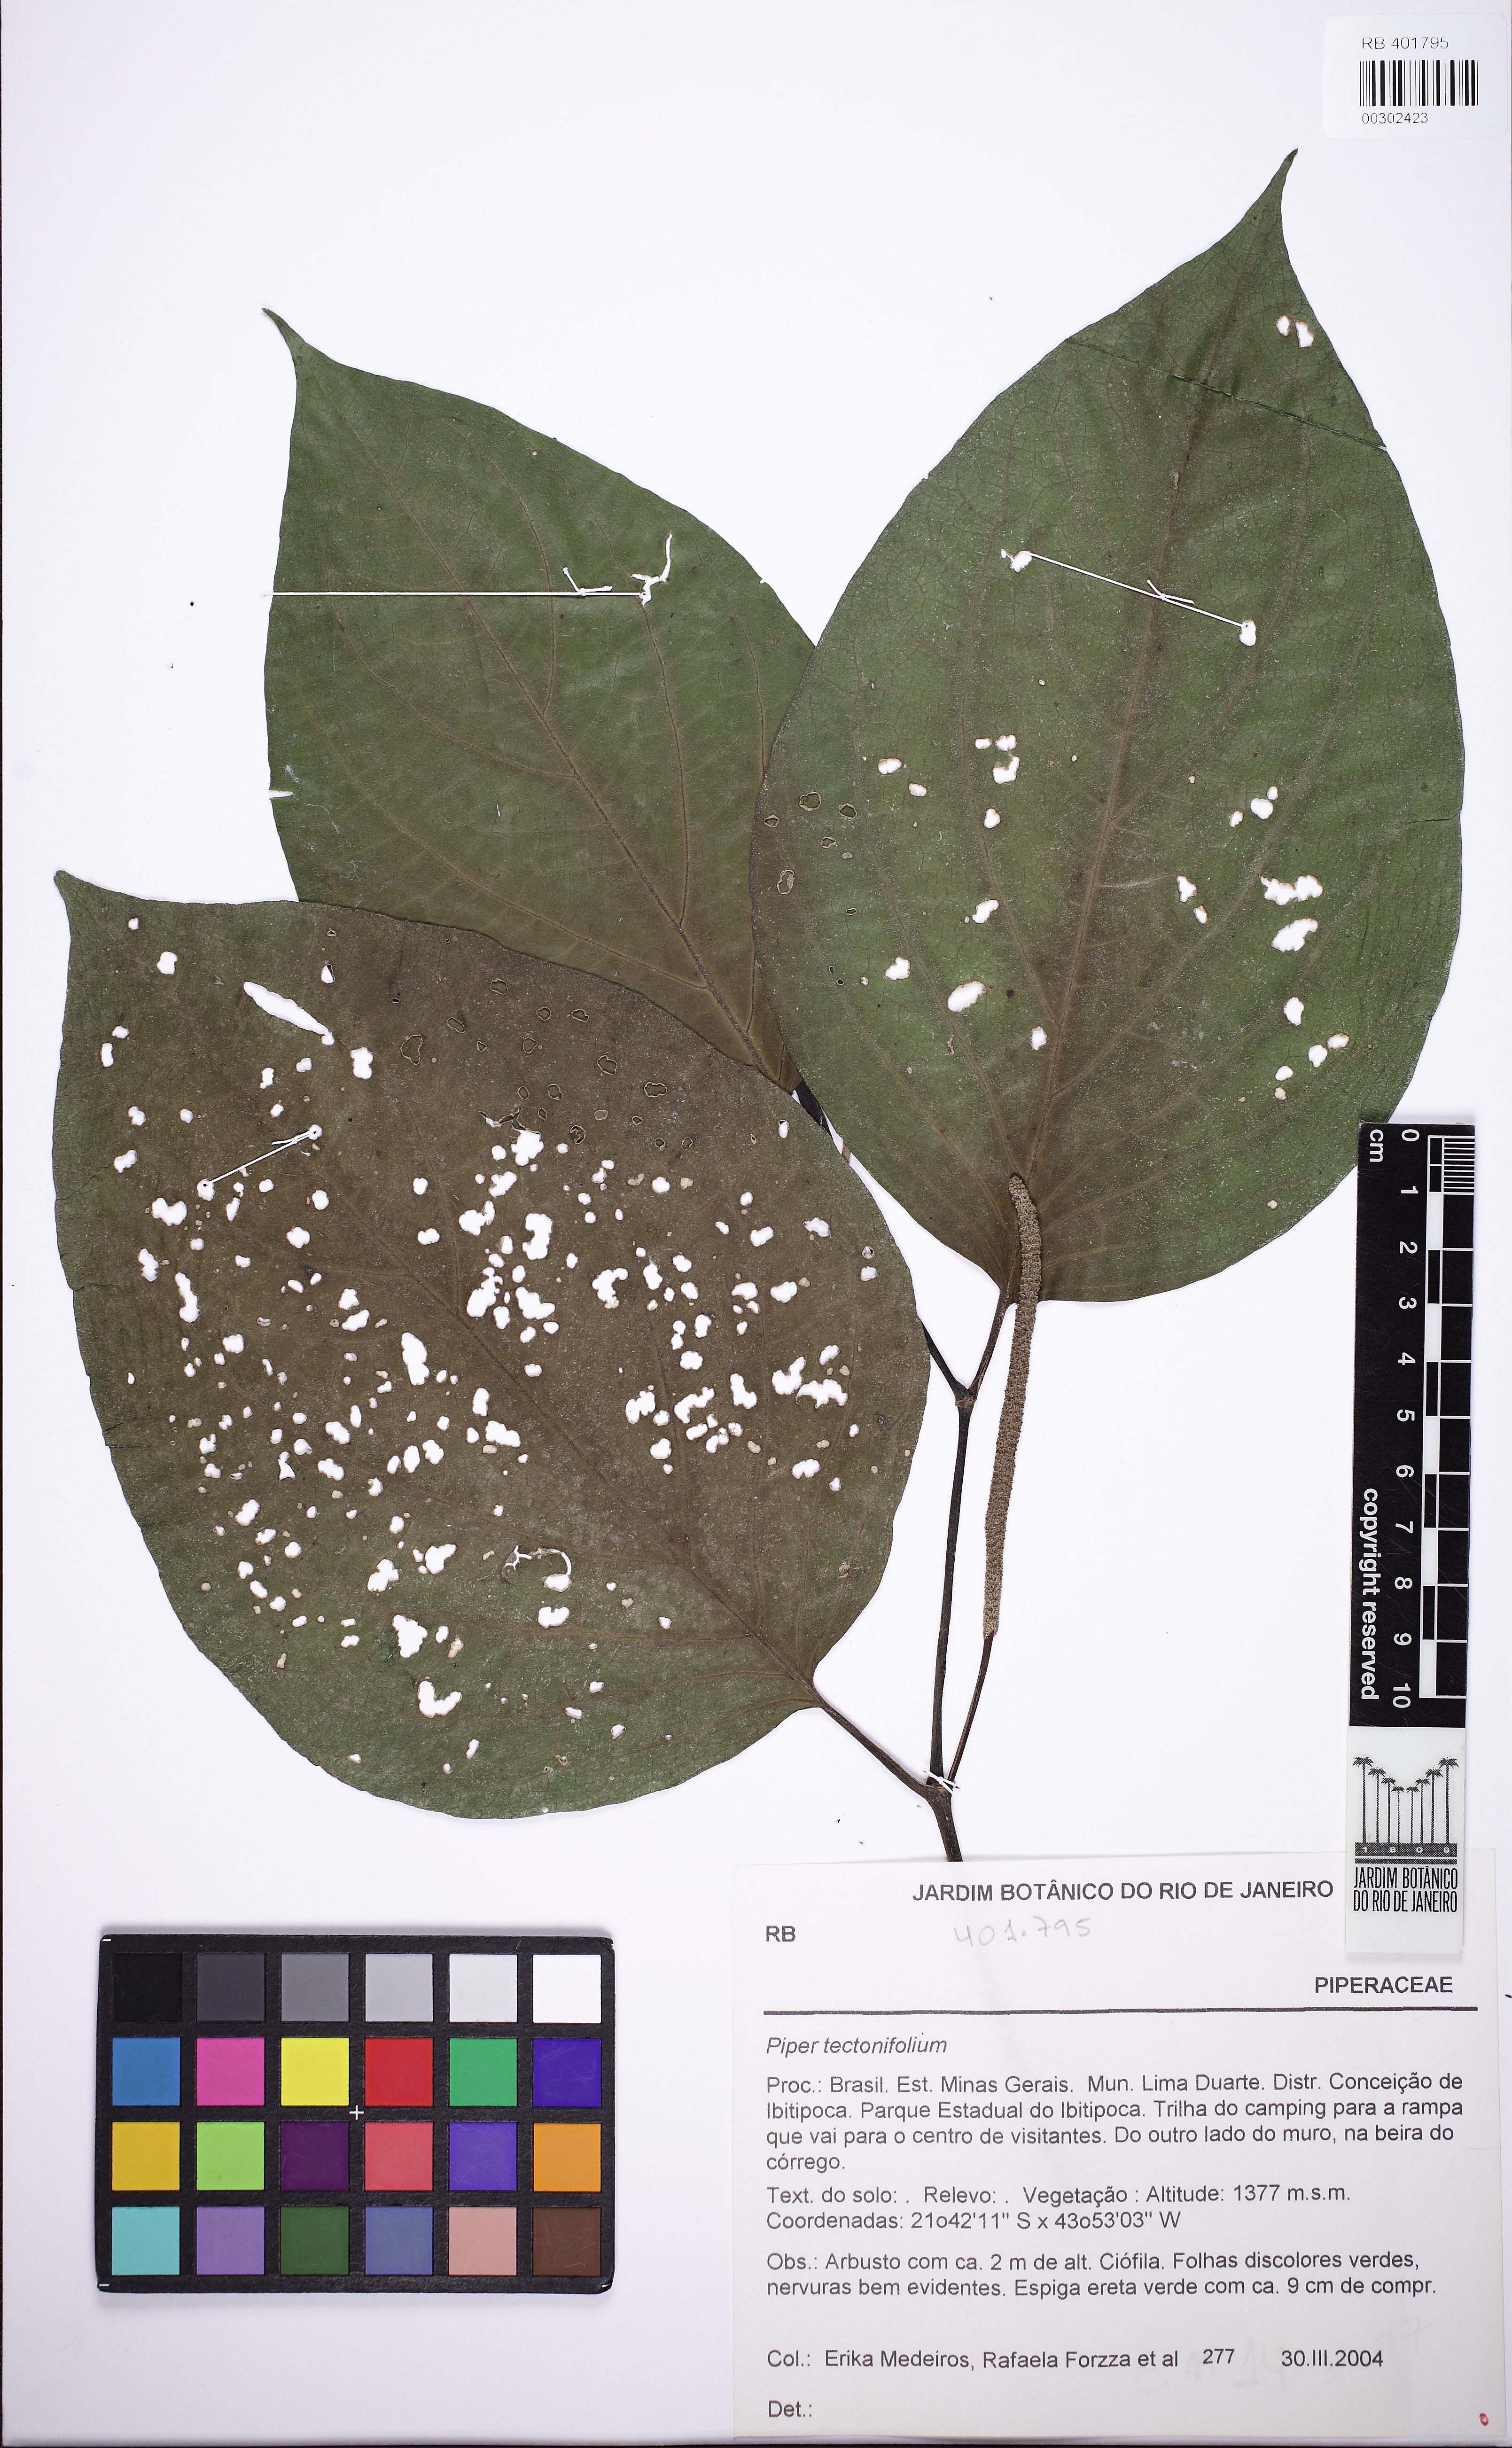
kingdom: Plantae
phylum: Tracheophyta
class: Magnoliopsida
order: Piperales
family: Piperaceae
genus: Piper
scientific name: Piper tectoniifolium
